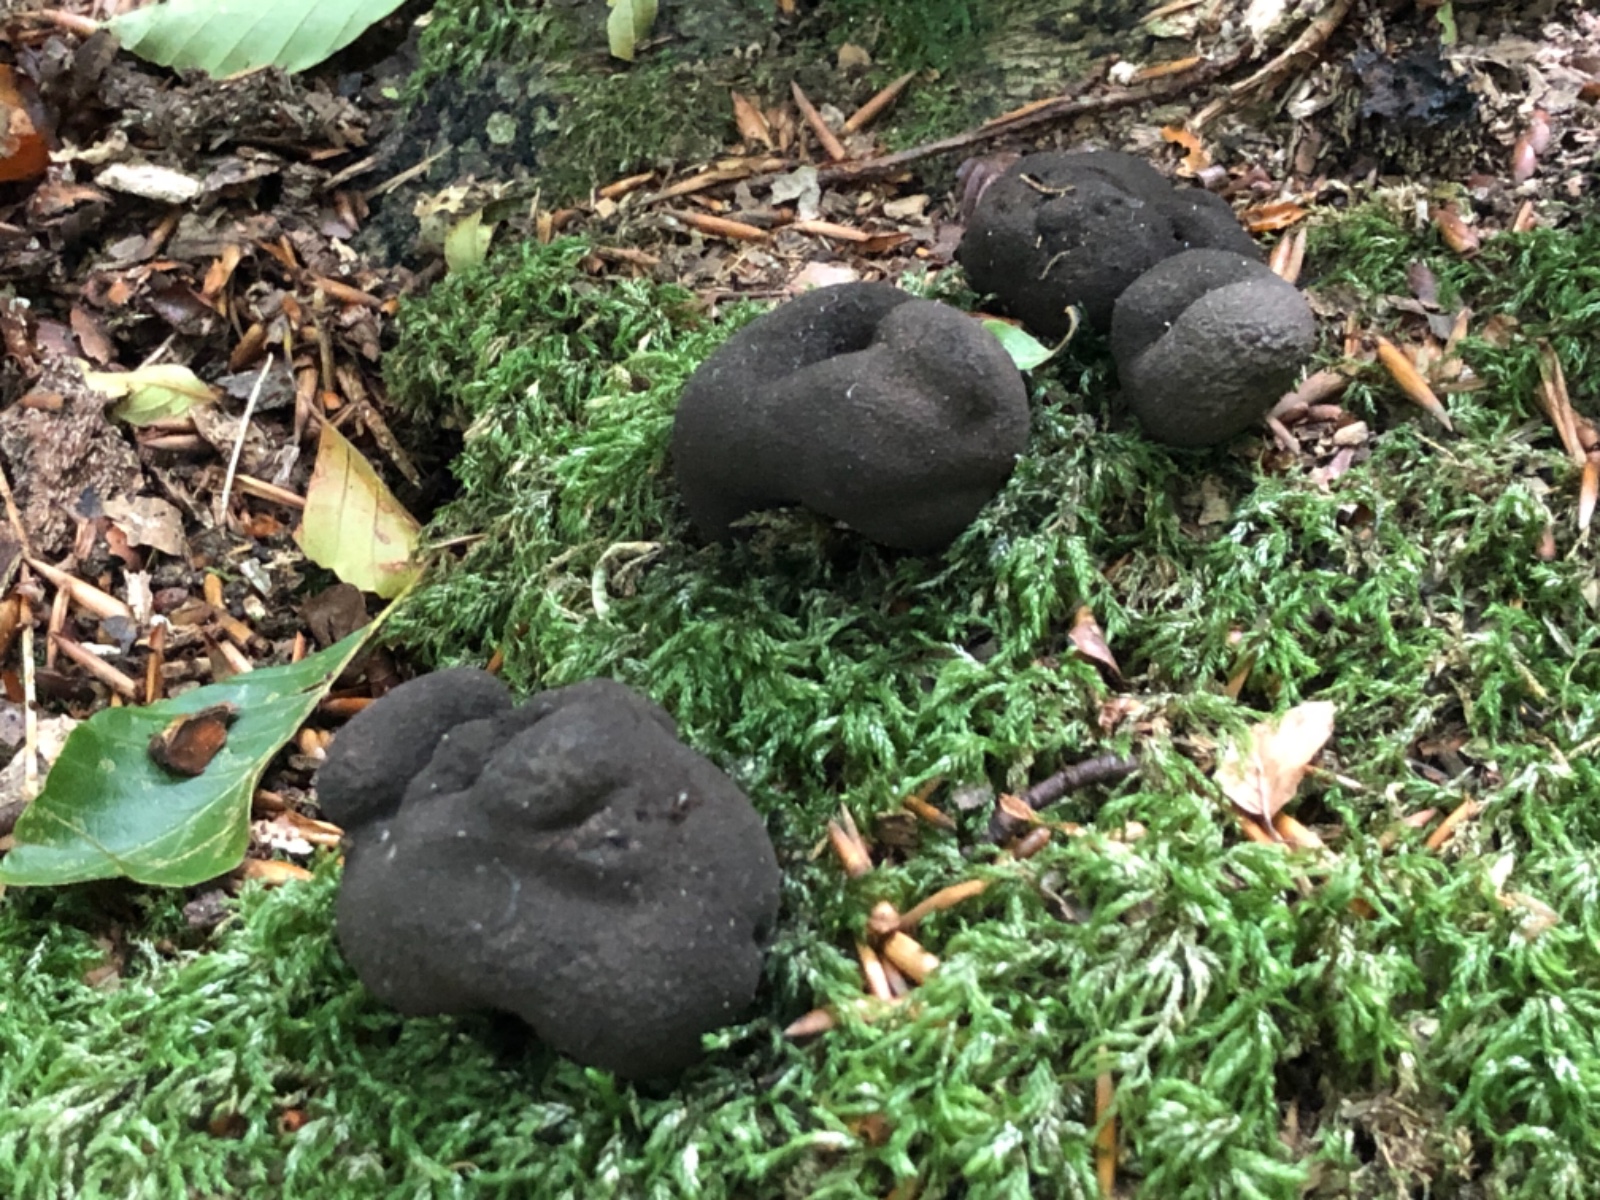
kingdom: Fungi
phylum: Ascomycota
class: Sordariomycetes
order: Xylariales
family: Xylariaceae
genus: Xylaria
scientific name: Xylaria polymorpha
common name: kølle-stødsvamp
